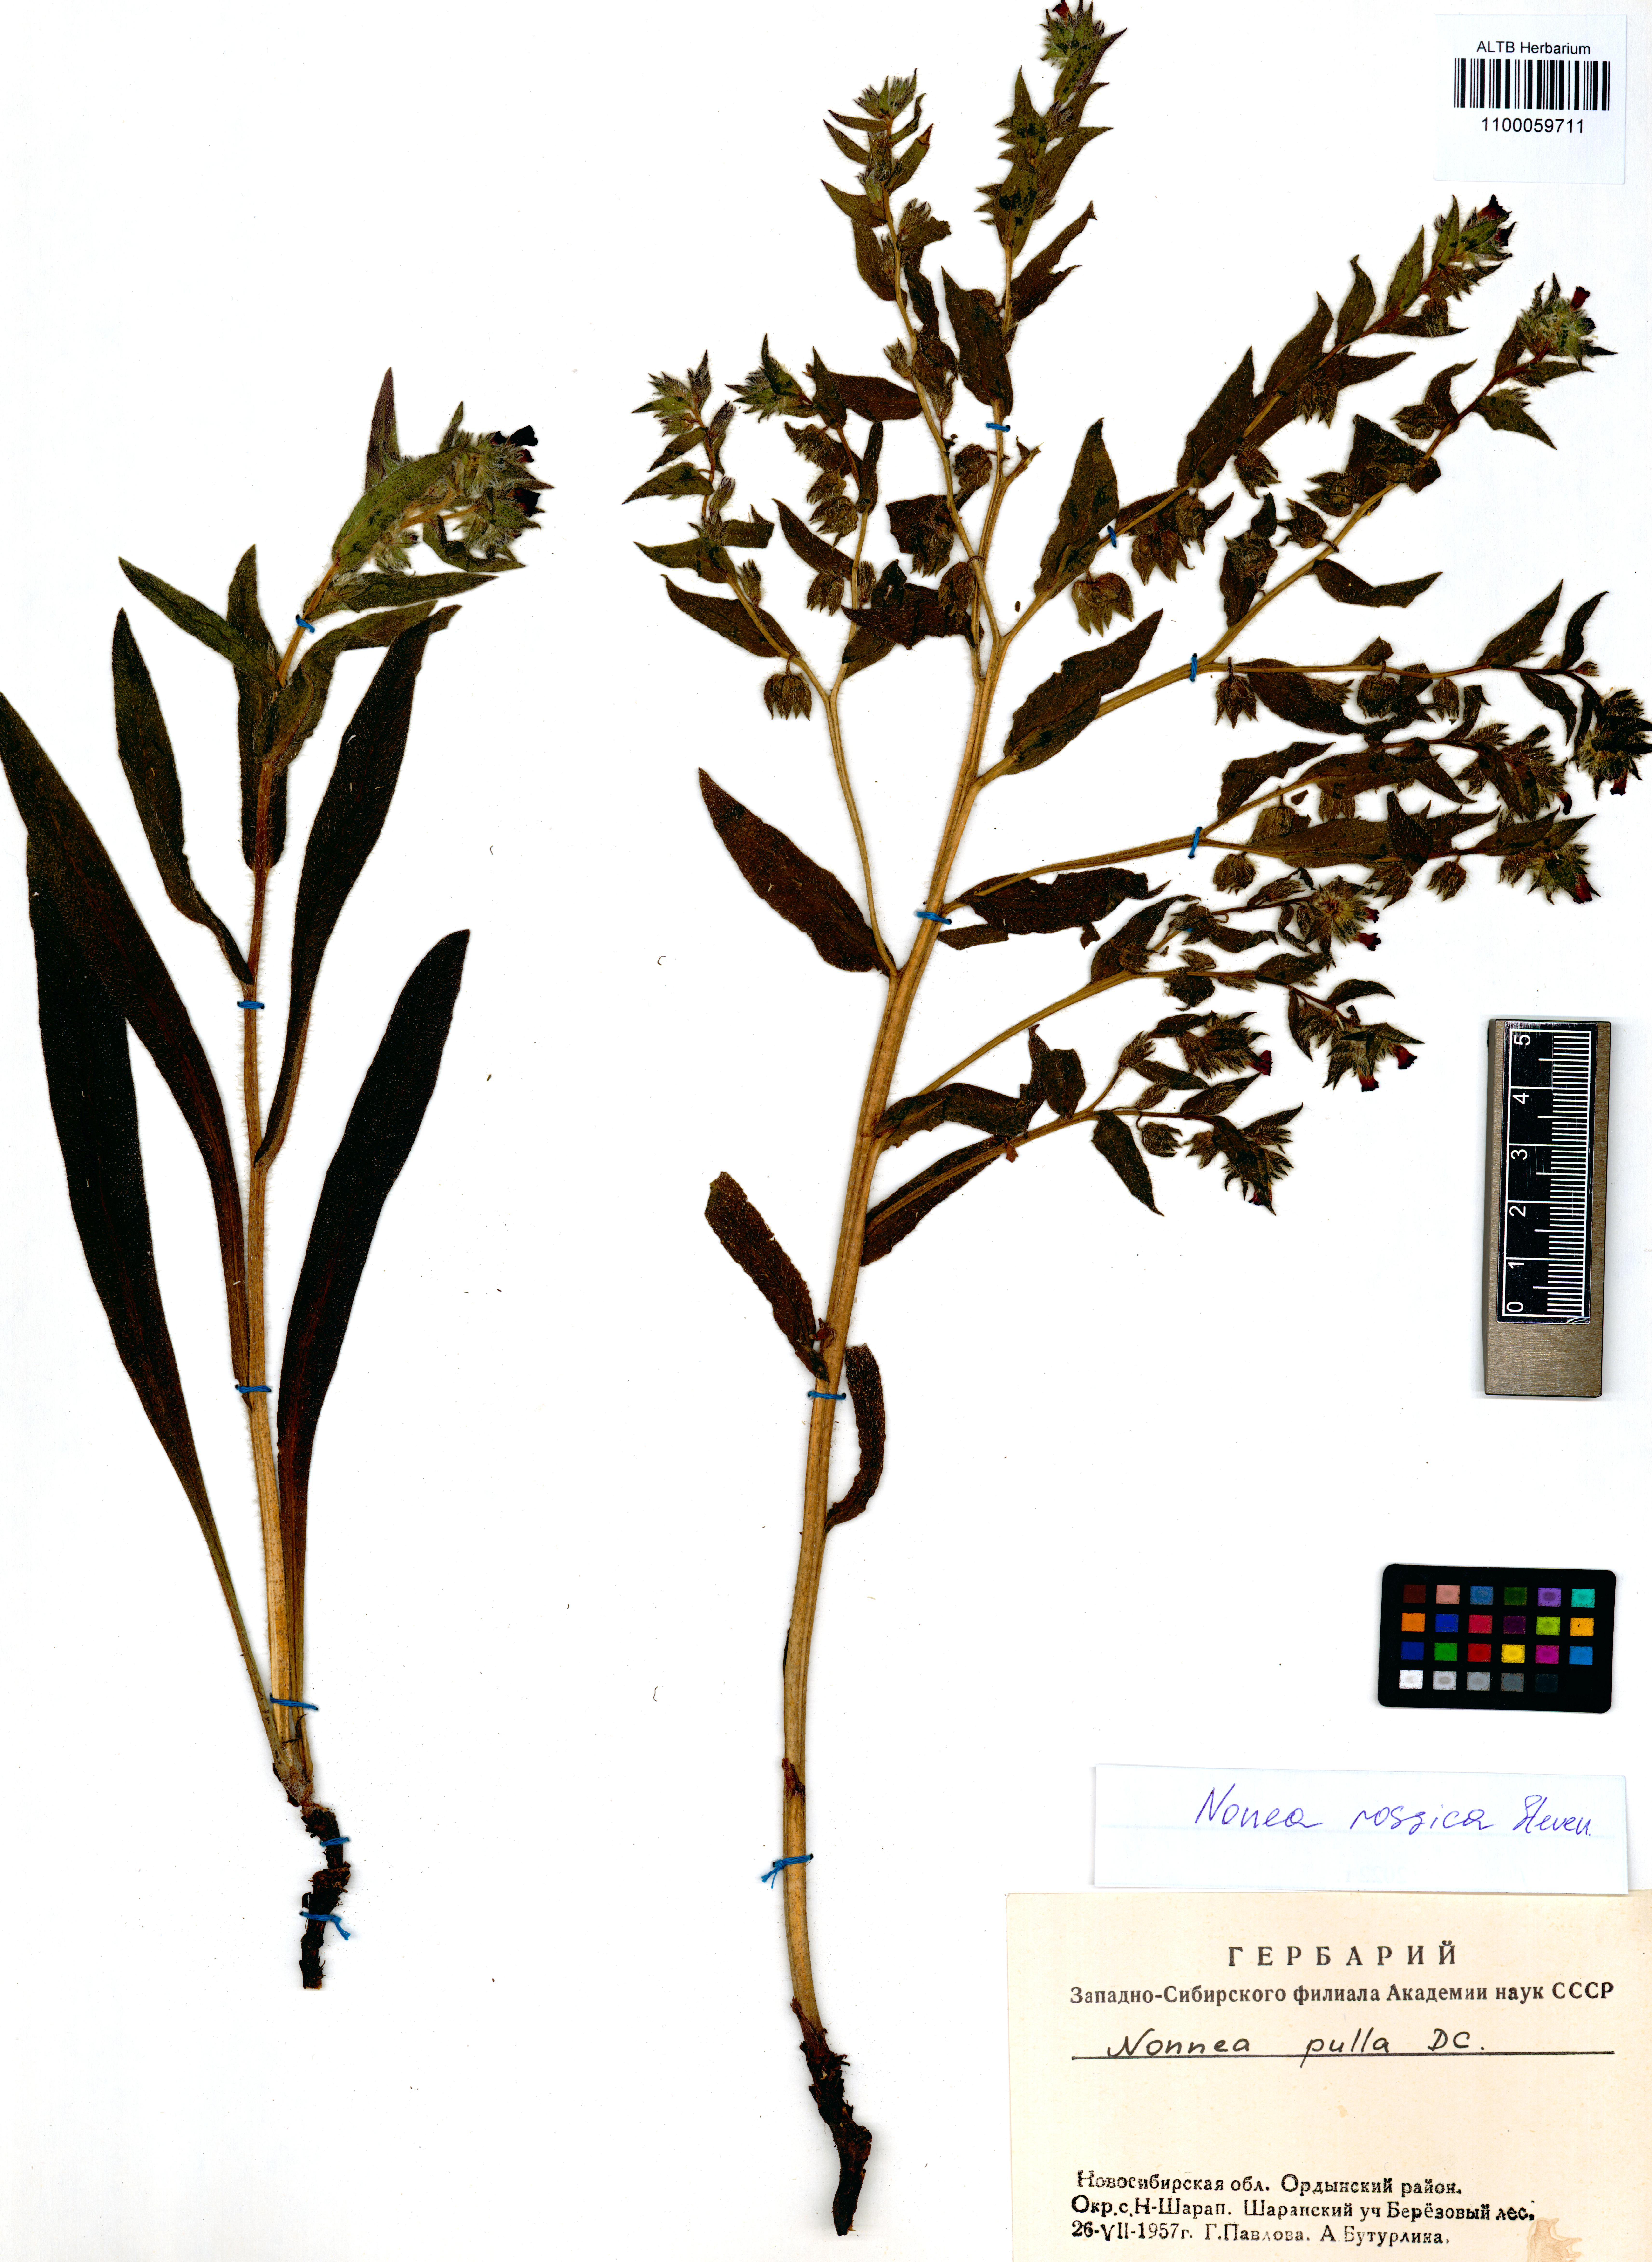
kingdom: Plantae
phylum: Tracheophyta
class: Magnoliopsida
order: Boraginales
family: Boraginaceae
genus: Nonea
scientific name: Nonea pulla
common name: Brown nonea
